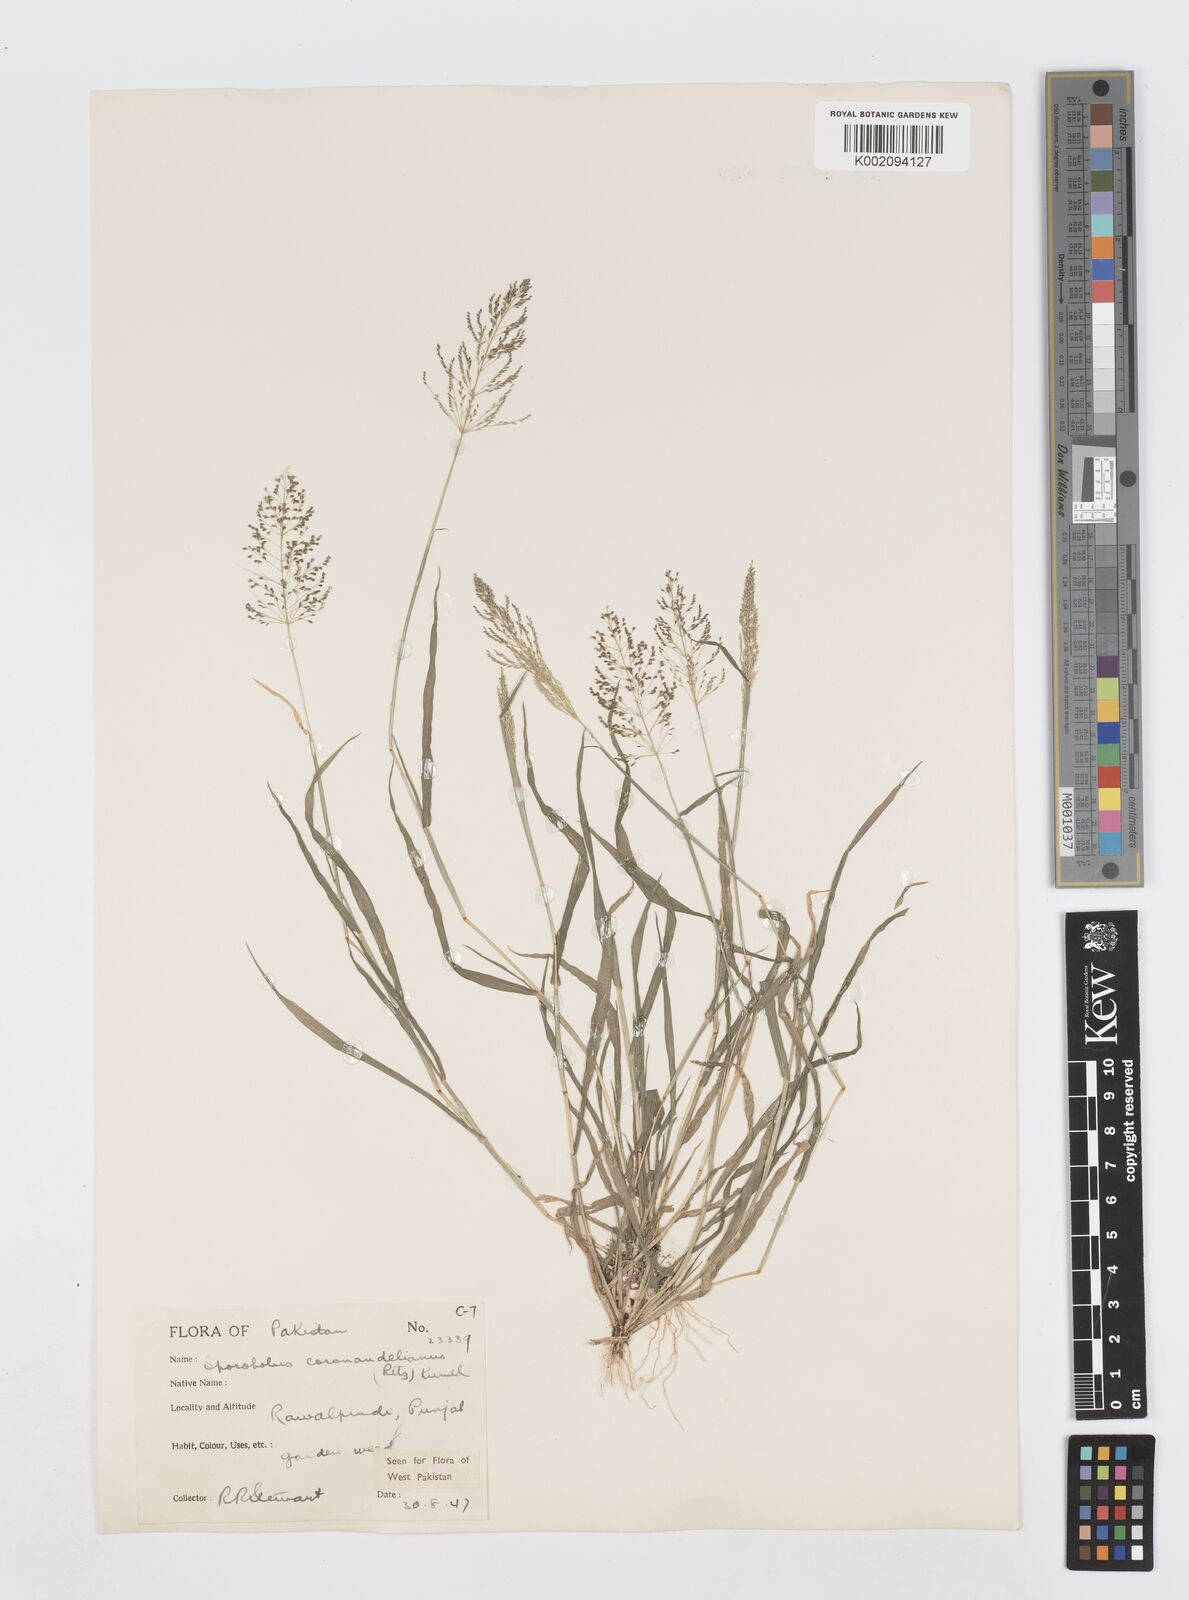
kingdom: Plantae
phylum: Tracheophyta
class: Liliopsida
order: Poales
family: Poaceae
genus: Sporobolus
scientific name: Sporobolus coromandelianus
